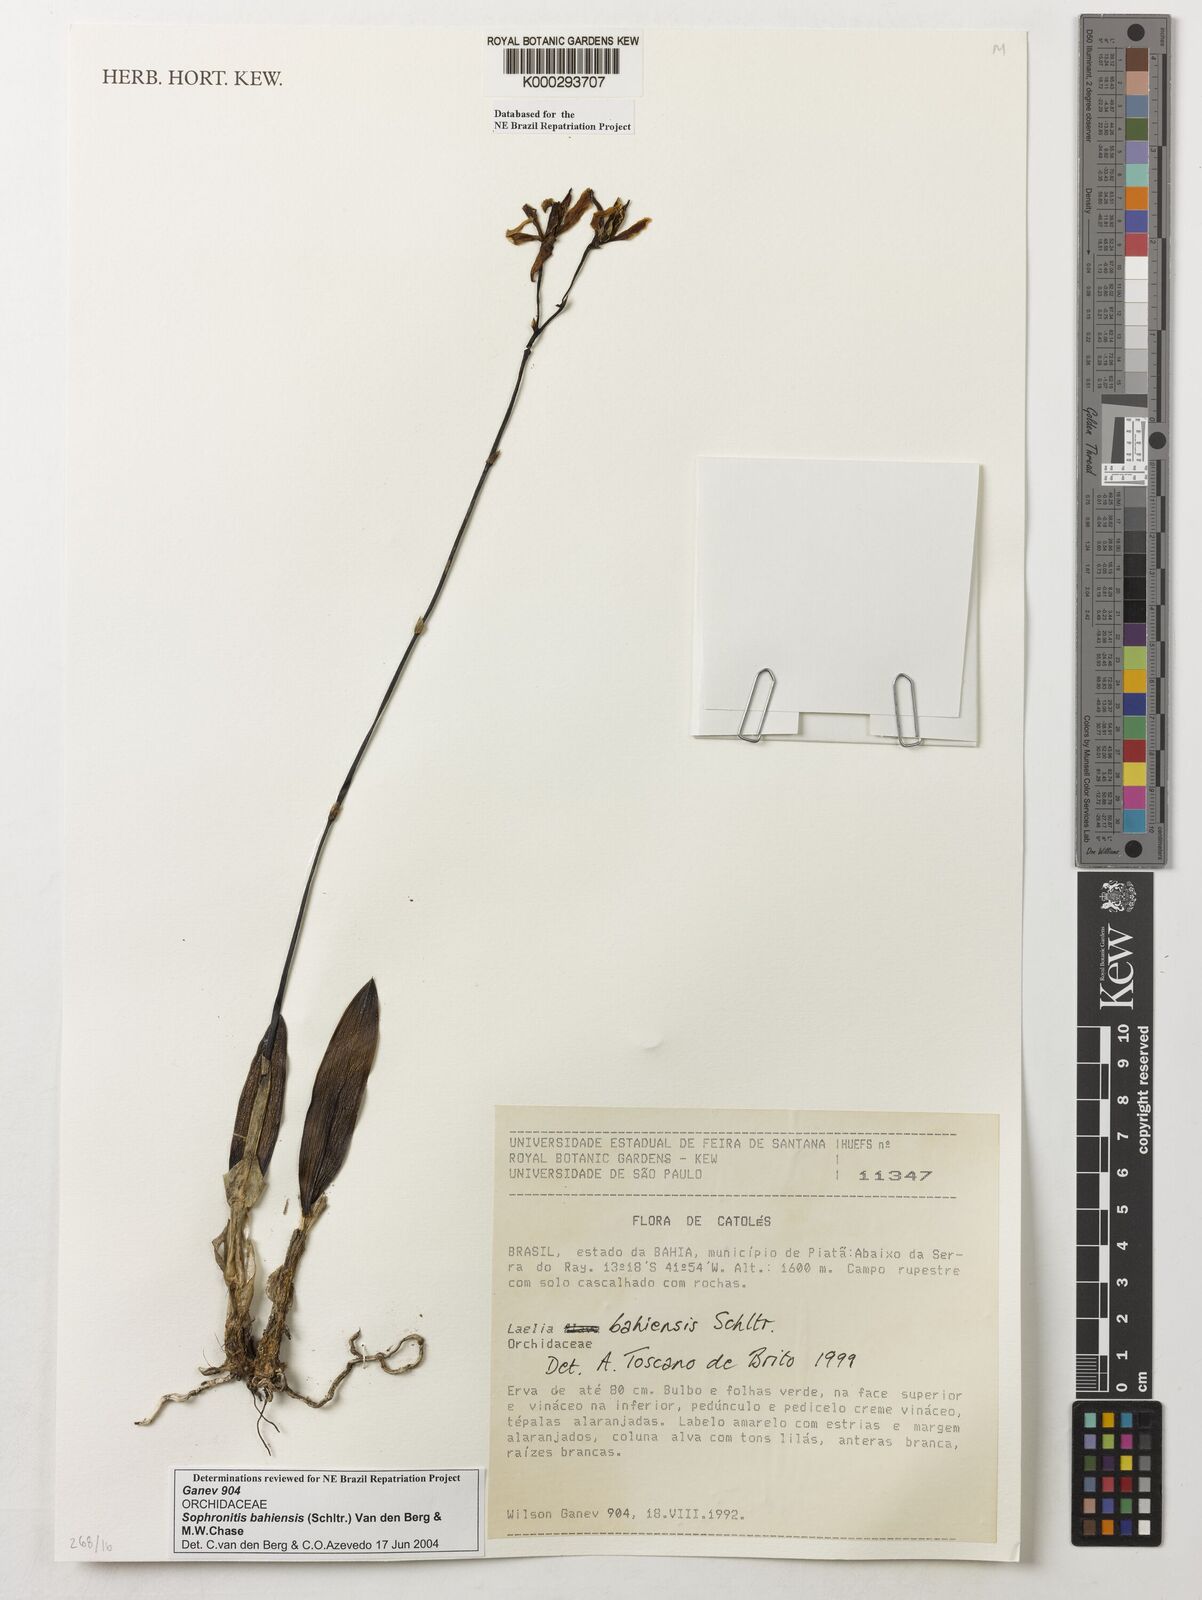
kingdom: Plantae
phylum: Tracheophyta
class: Liliopsida
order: Asparagales
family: Orchidaceae
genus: Cattleya
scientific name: Cattleya luetzelburgii
